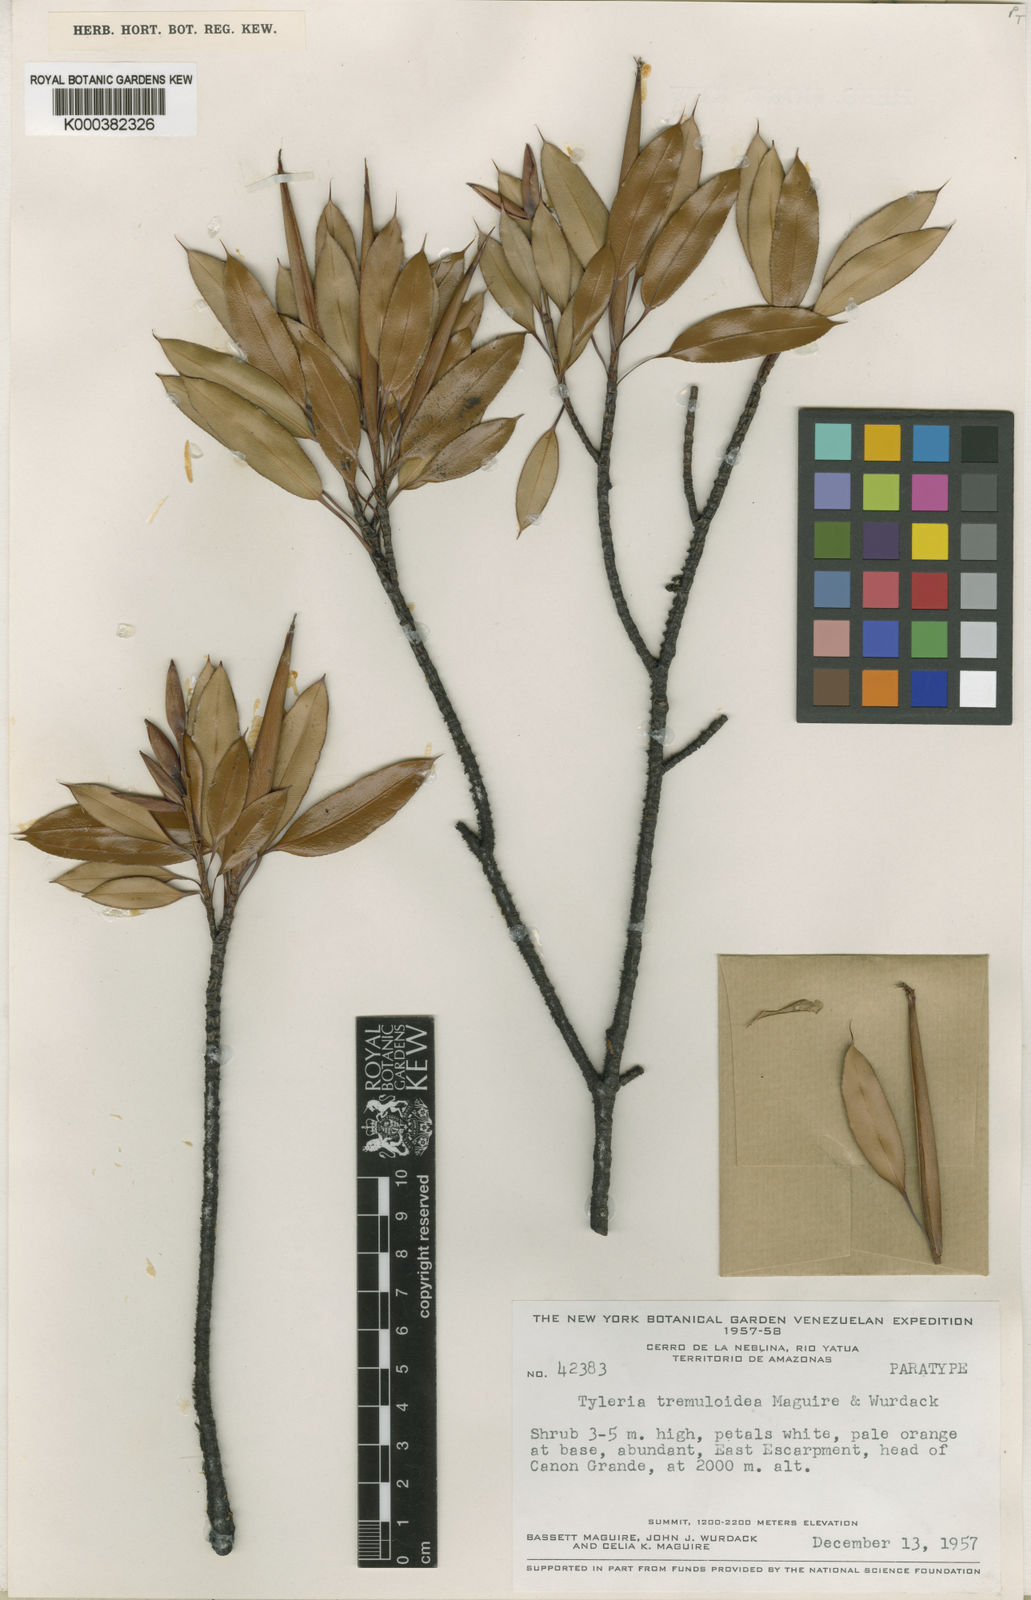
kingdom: Plantae
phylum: Tracheophyta
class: Magnoliopsida
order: Malpighiales
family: Ochnaceae
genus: Tyleria
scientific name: Tyleria tremuloidea
